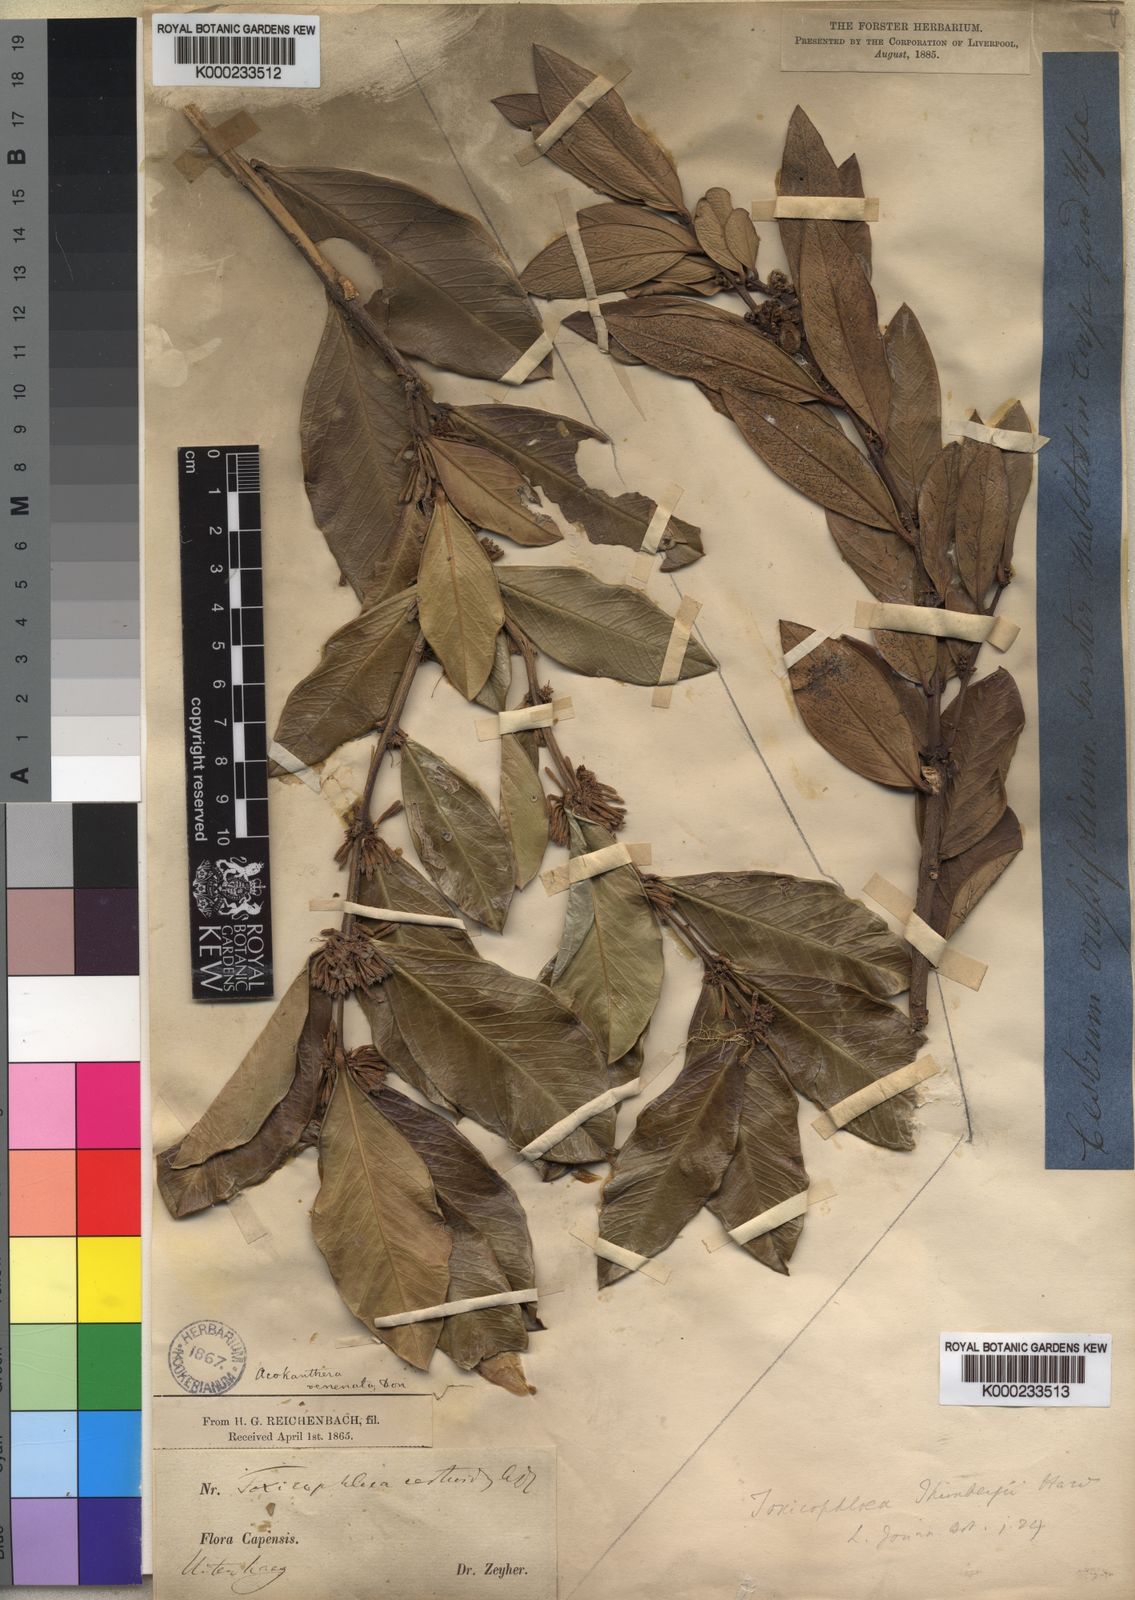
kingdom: Plantae
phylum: Tracheophyta
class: Magnoliopsida
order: Gentianales
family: Apocynaceae
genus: Acokanthera
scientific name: Acokanthera
